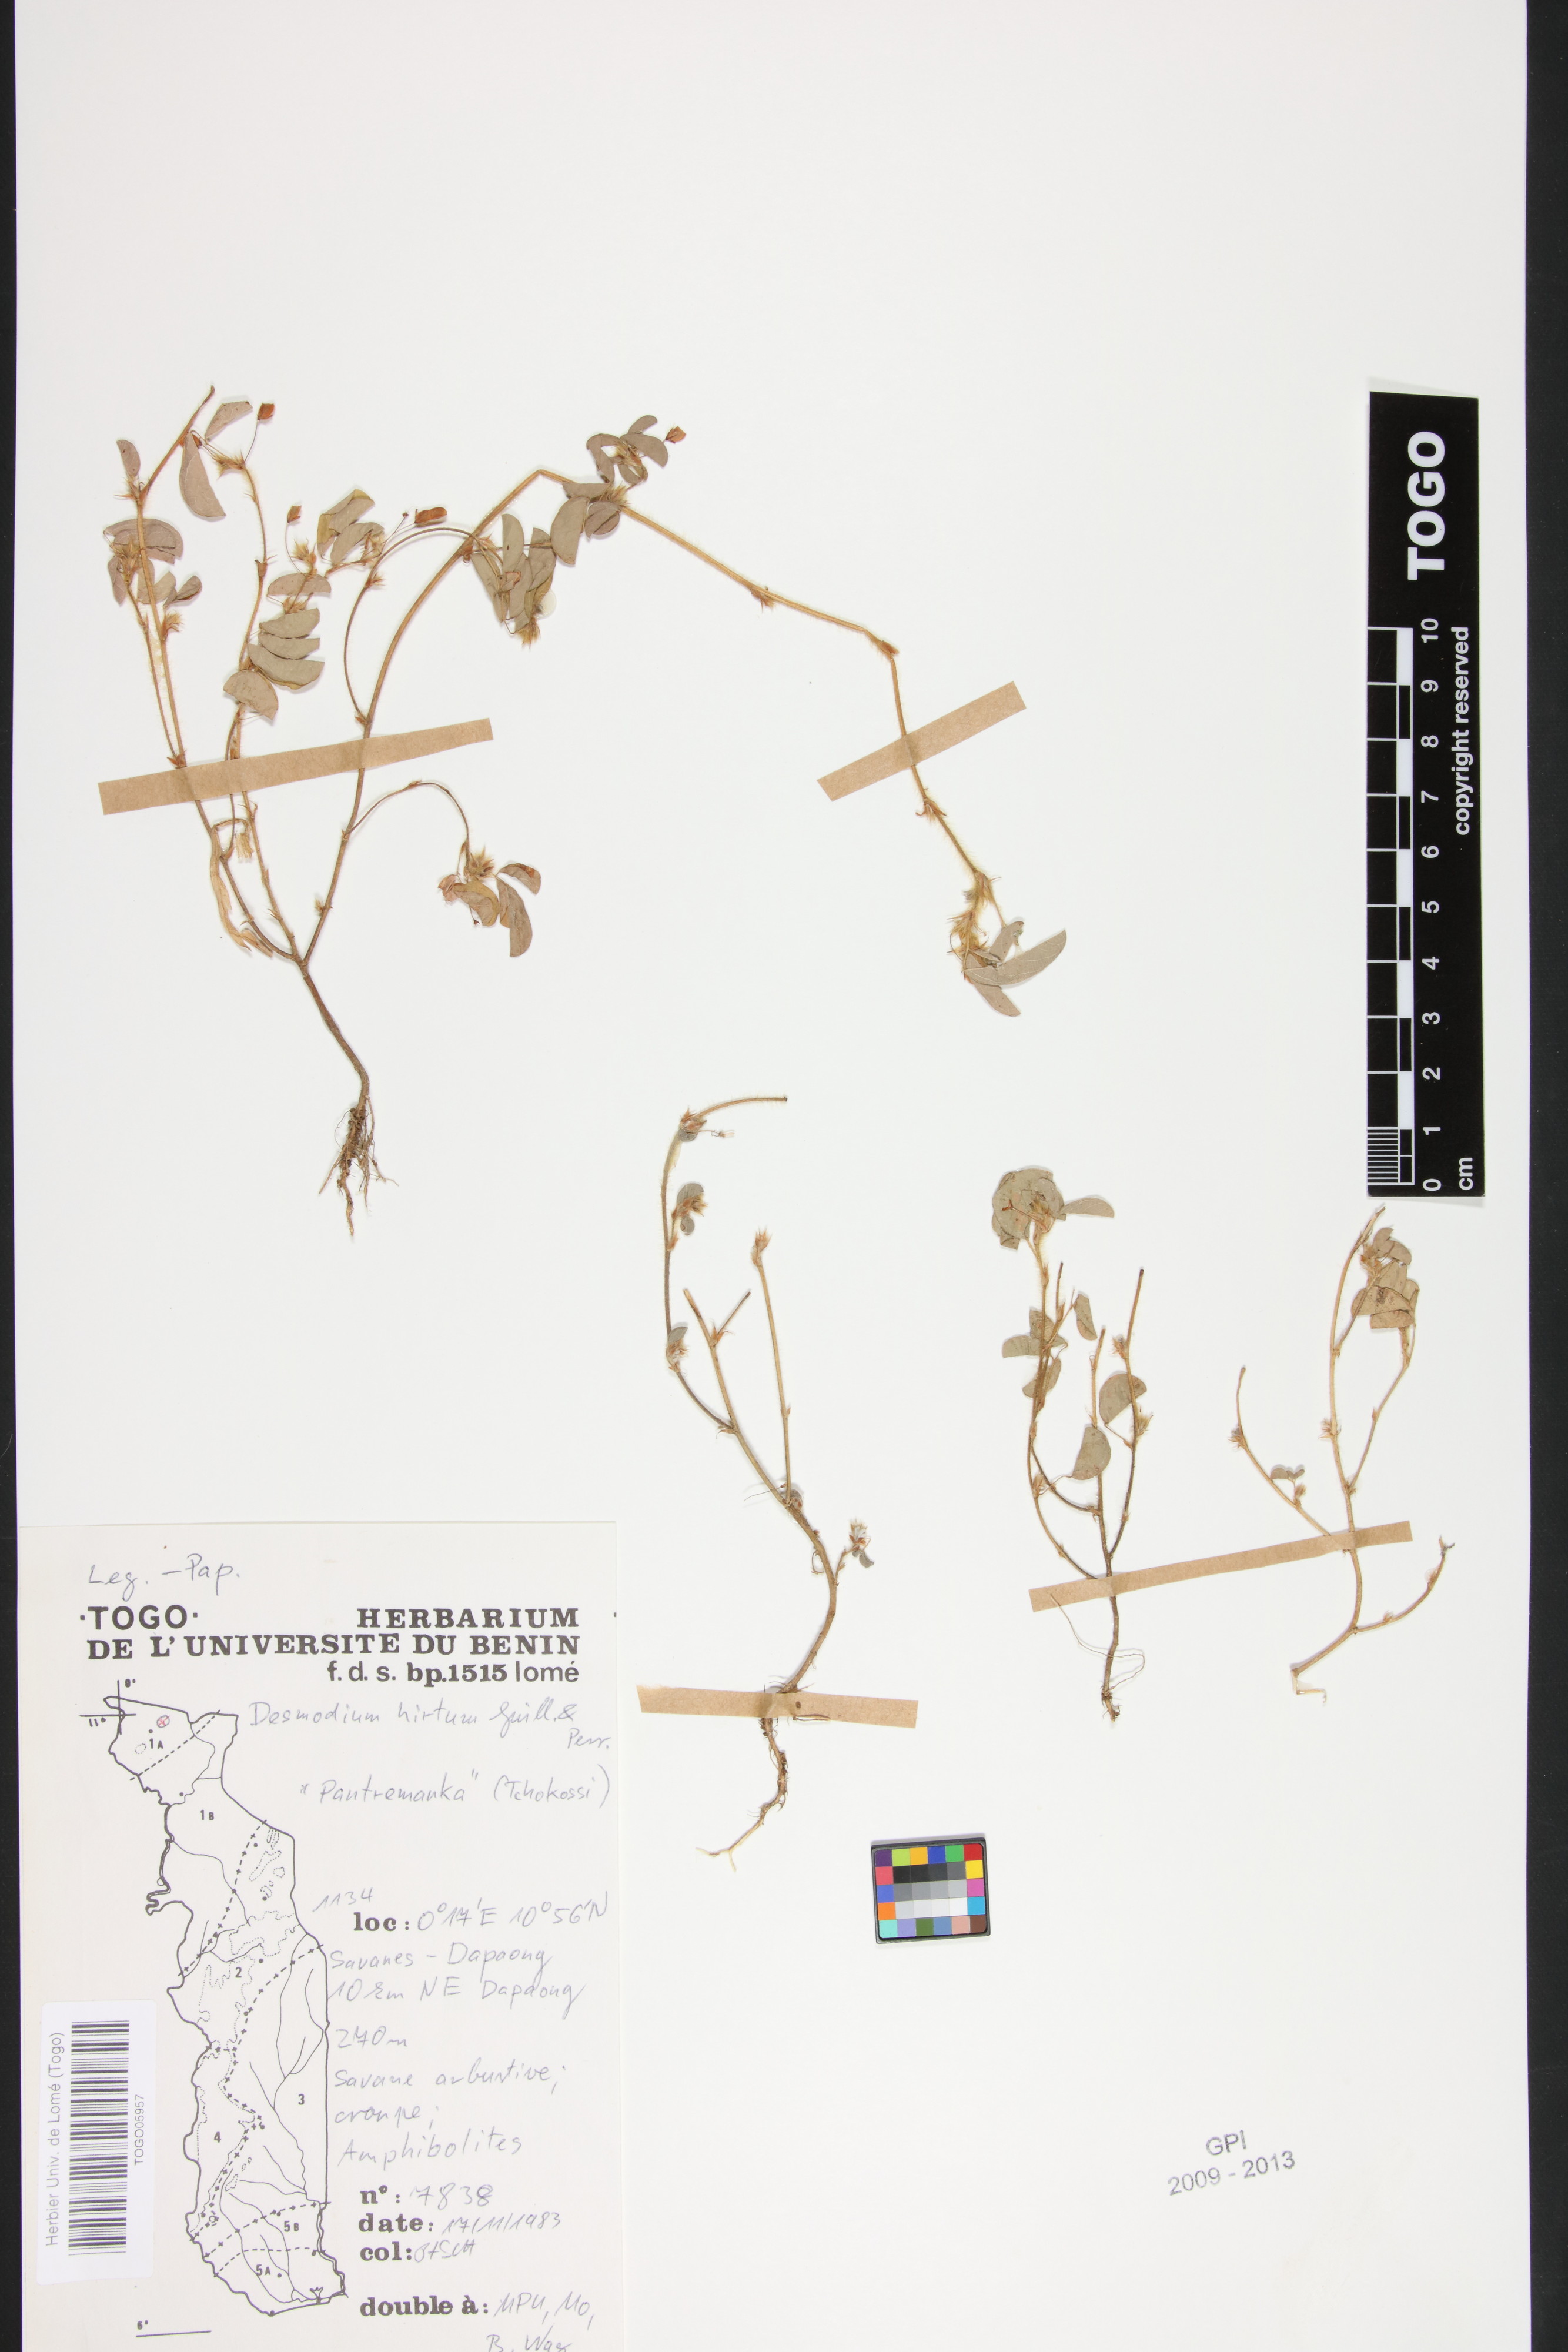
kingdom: Plantae
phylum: Tracheophyta
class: Magnoliopsida
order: Fabales
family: Fabaceae
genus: Grona
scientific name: Grona hirta
